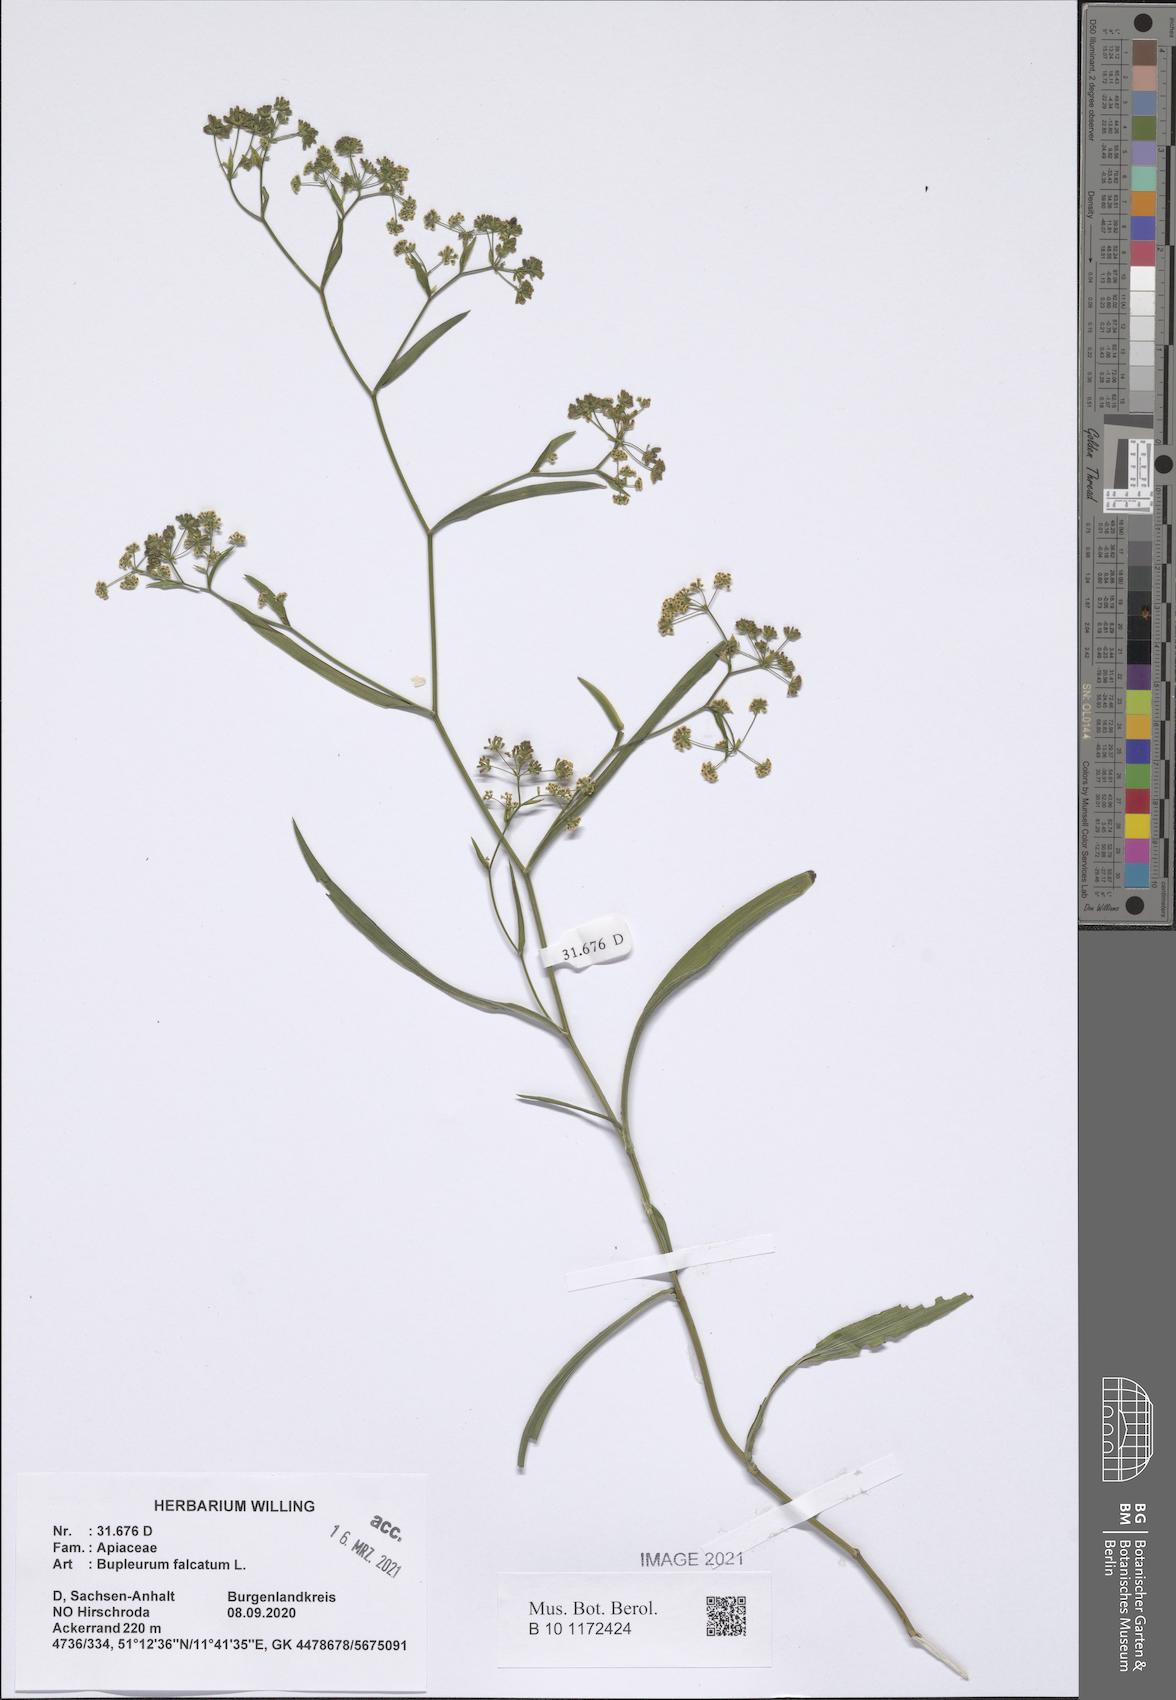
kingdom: Plantae
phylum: Tracheophyta
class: Magnoliopsida
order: Apiales
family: Apiaceae
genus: Bupleurum
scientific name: Bupleurum falcatum
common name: Sickle-leaved hare's-ear
